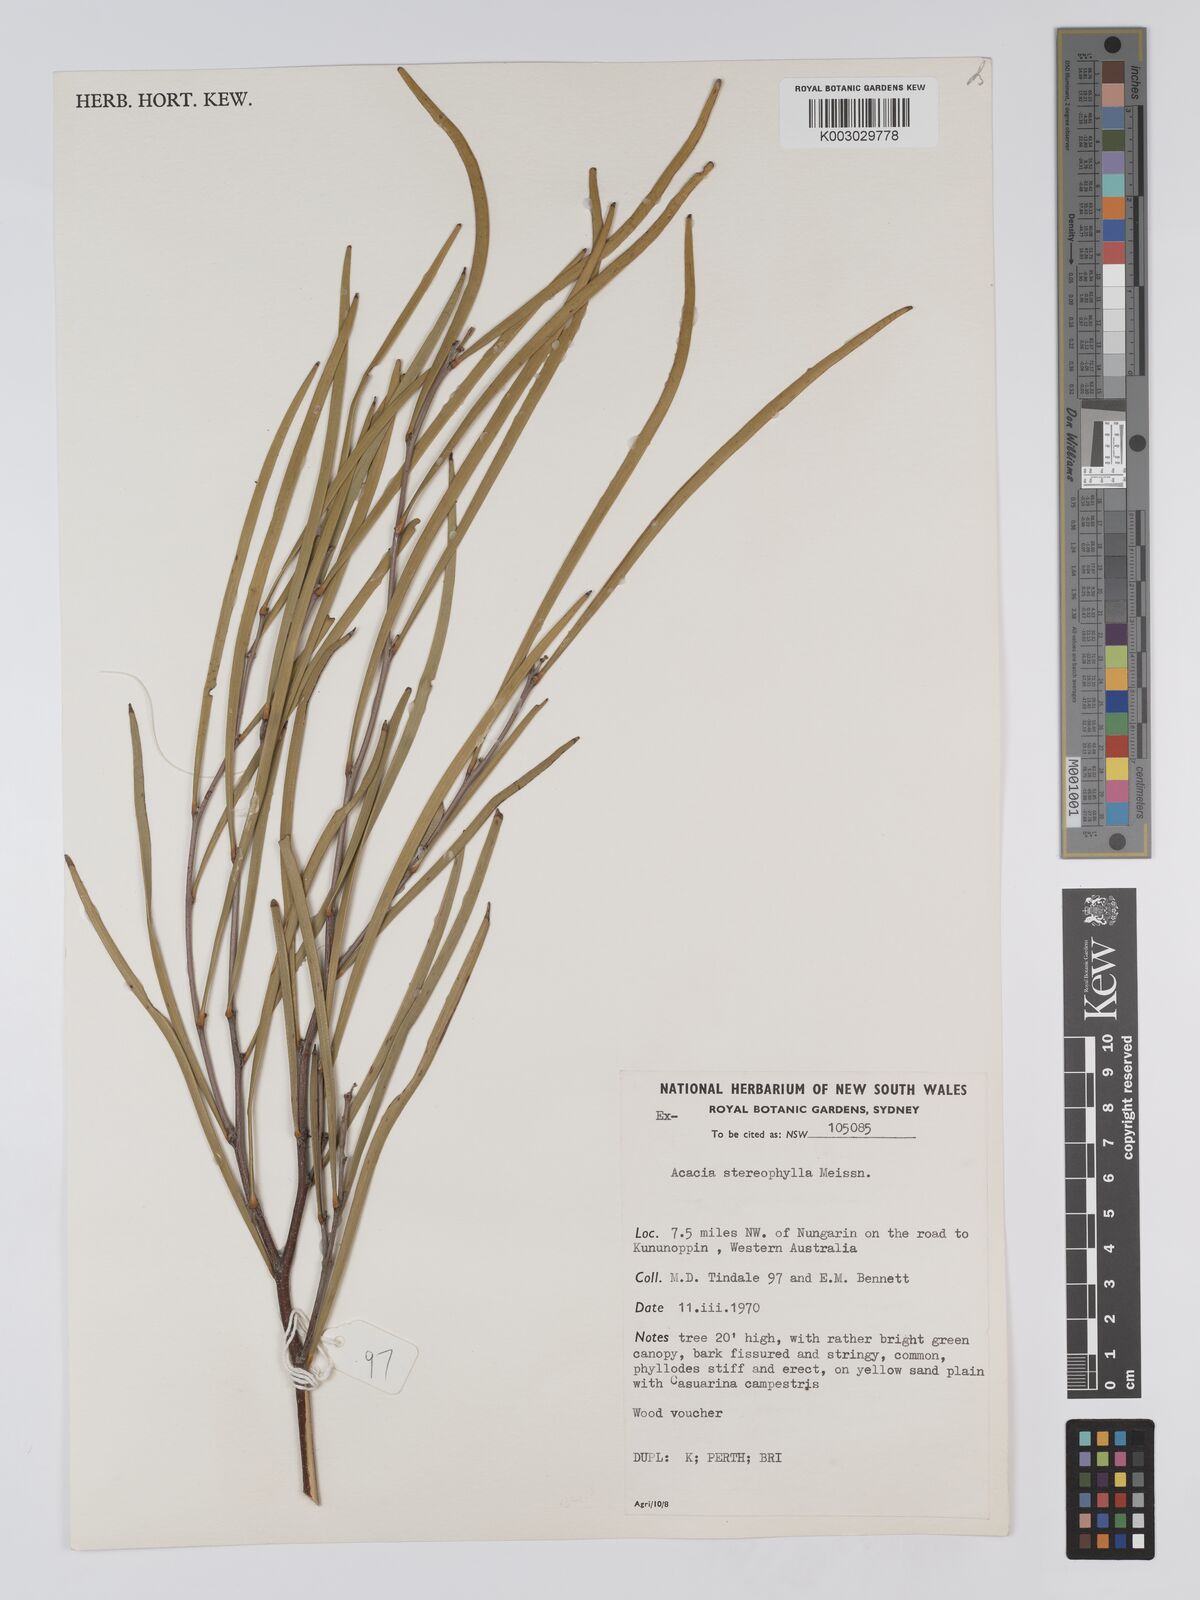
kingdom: Plantae
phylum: Tracheophyta
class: Magnoliopsida
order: Fabales
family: Fabaceae
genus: Acacia
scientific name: Acacia stereophylla
